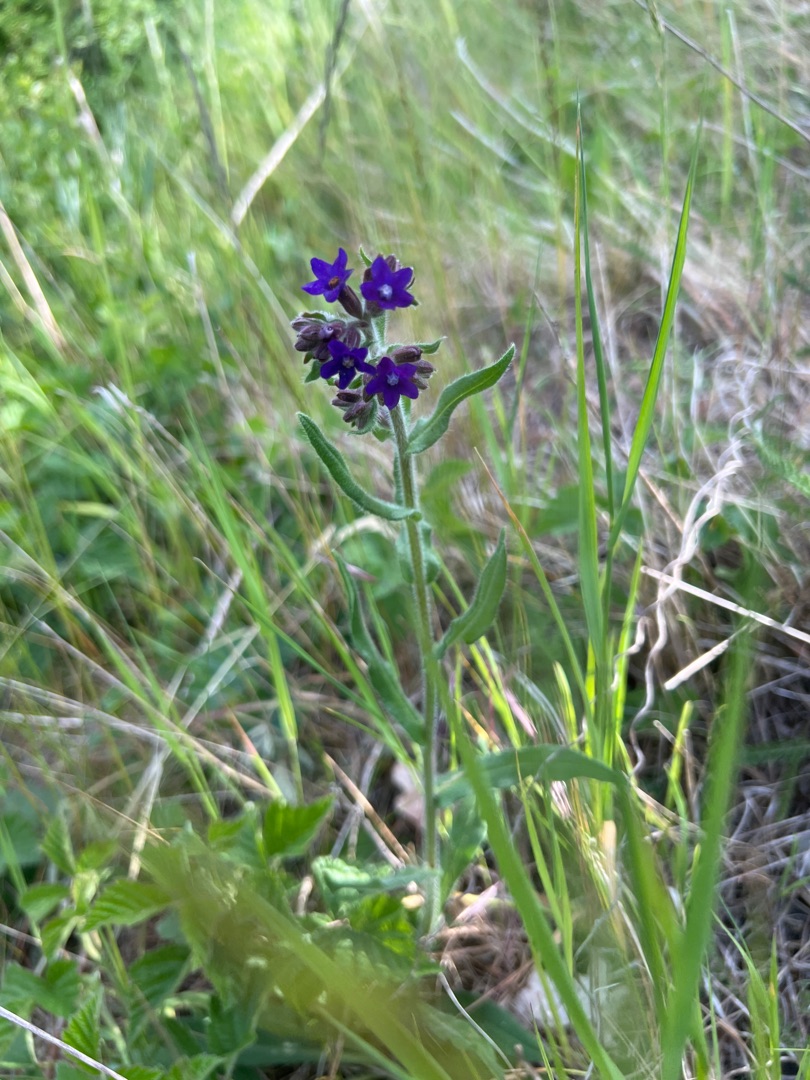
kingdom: Plantae
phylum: Tracheophyta
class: Magnoliopsida
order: Boraginales
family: Boraginaceae
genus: Anchusa
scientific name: Anchusa officinalis
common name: Læge-oksetunge
